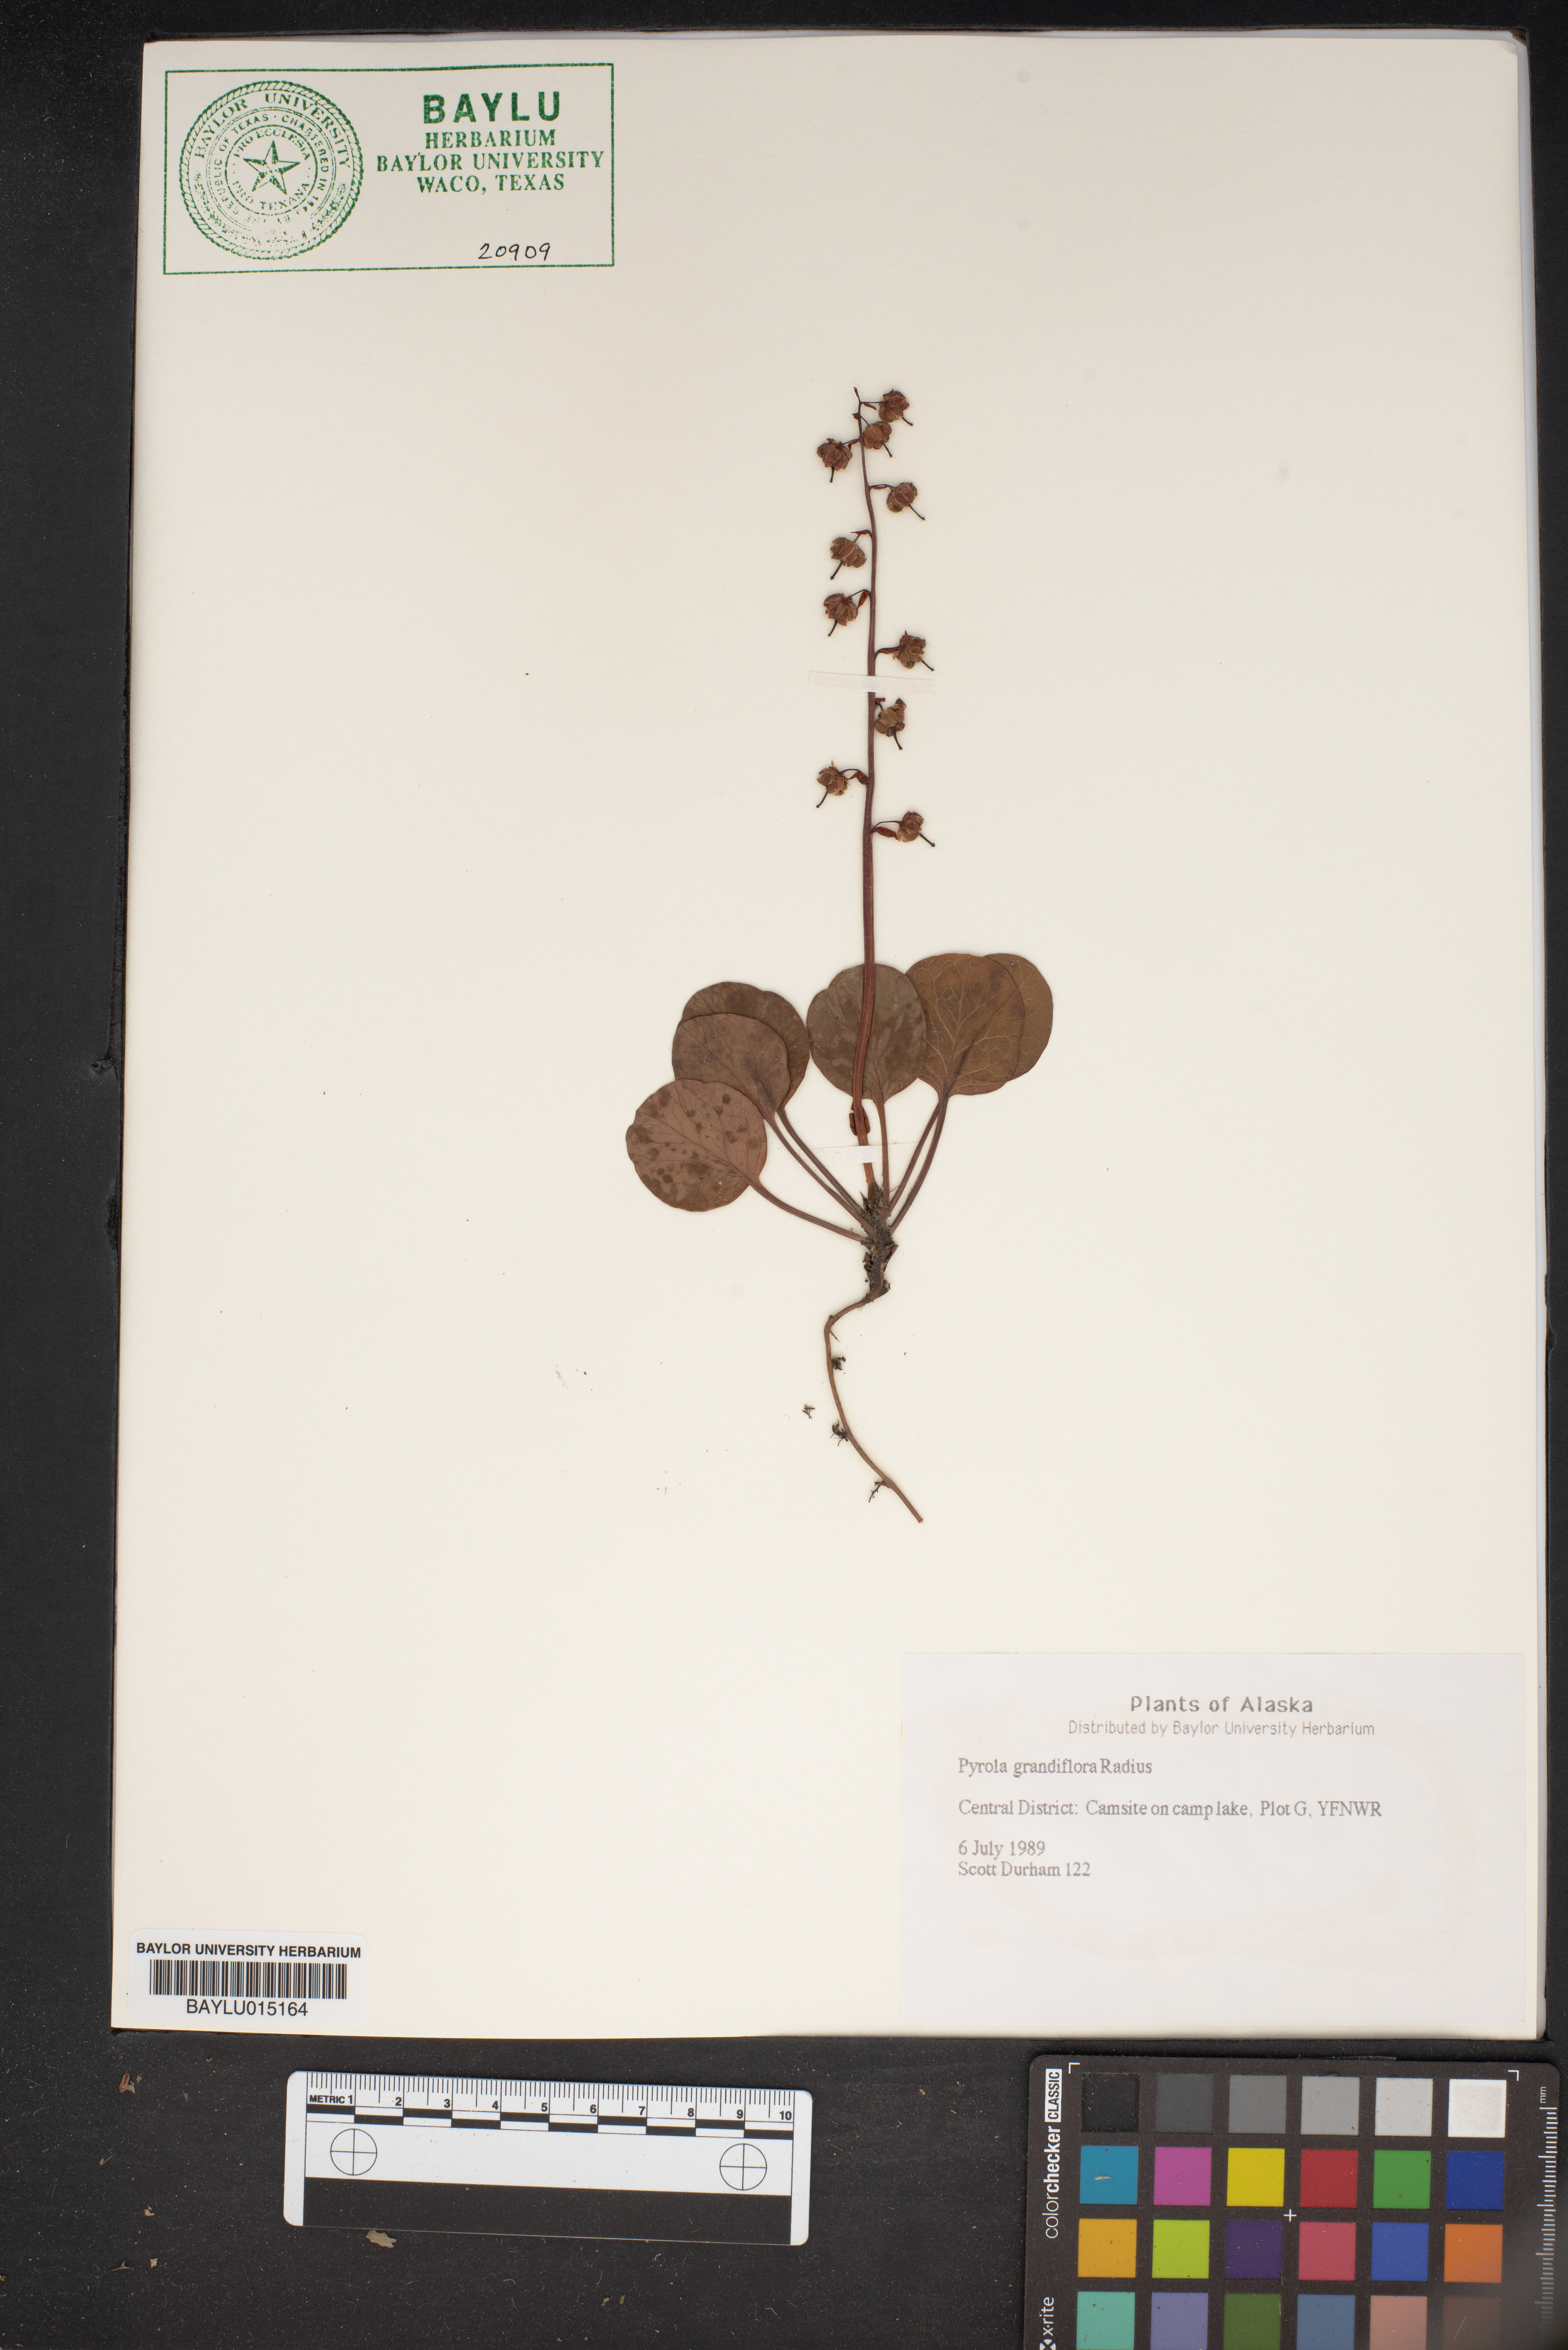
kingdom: Plantae
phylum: Tracheophyta
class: Magnoliopsida
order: Ericales
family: Ericaceae
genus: Pyrola
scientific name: Pyrola grandiflora
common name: Arctic pyrola
